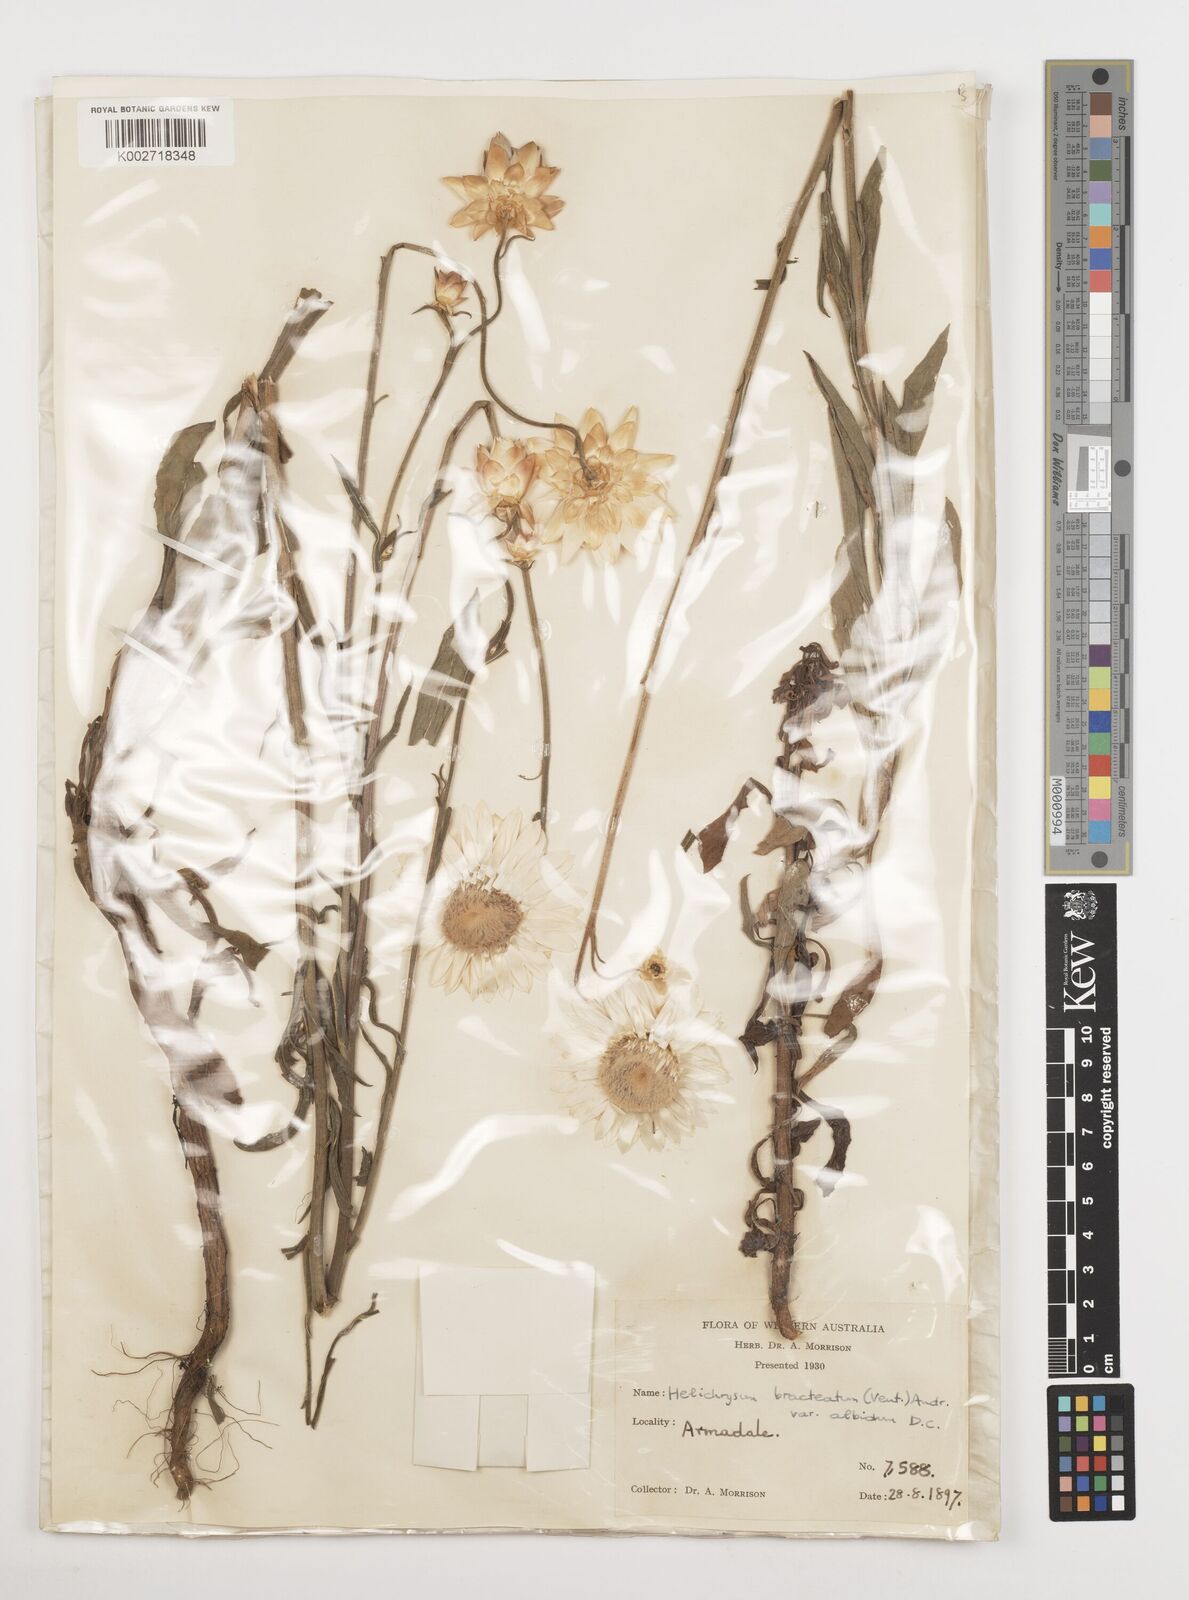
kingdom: Plantae
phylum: Tracheophyta
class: Magnoliopsida
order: Asterales
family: Asteraceae
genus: Xerochrysum
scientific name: Xerochrysum bracteatum
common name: Bracted strawflower
